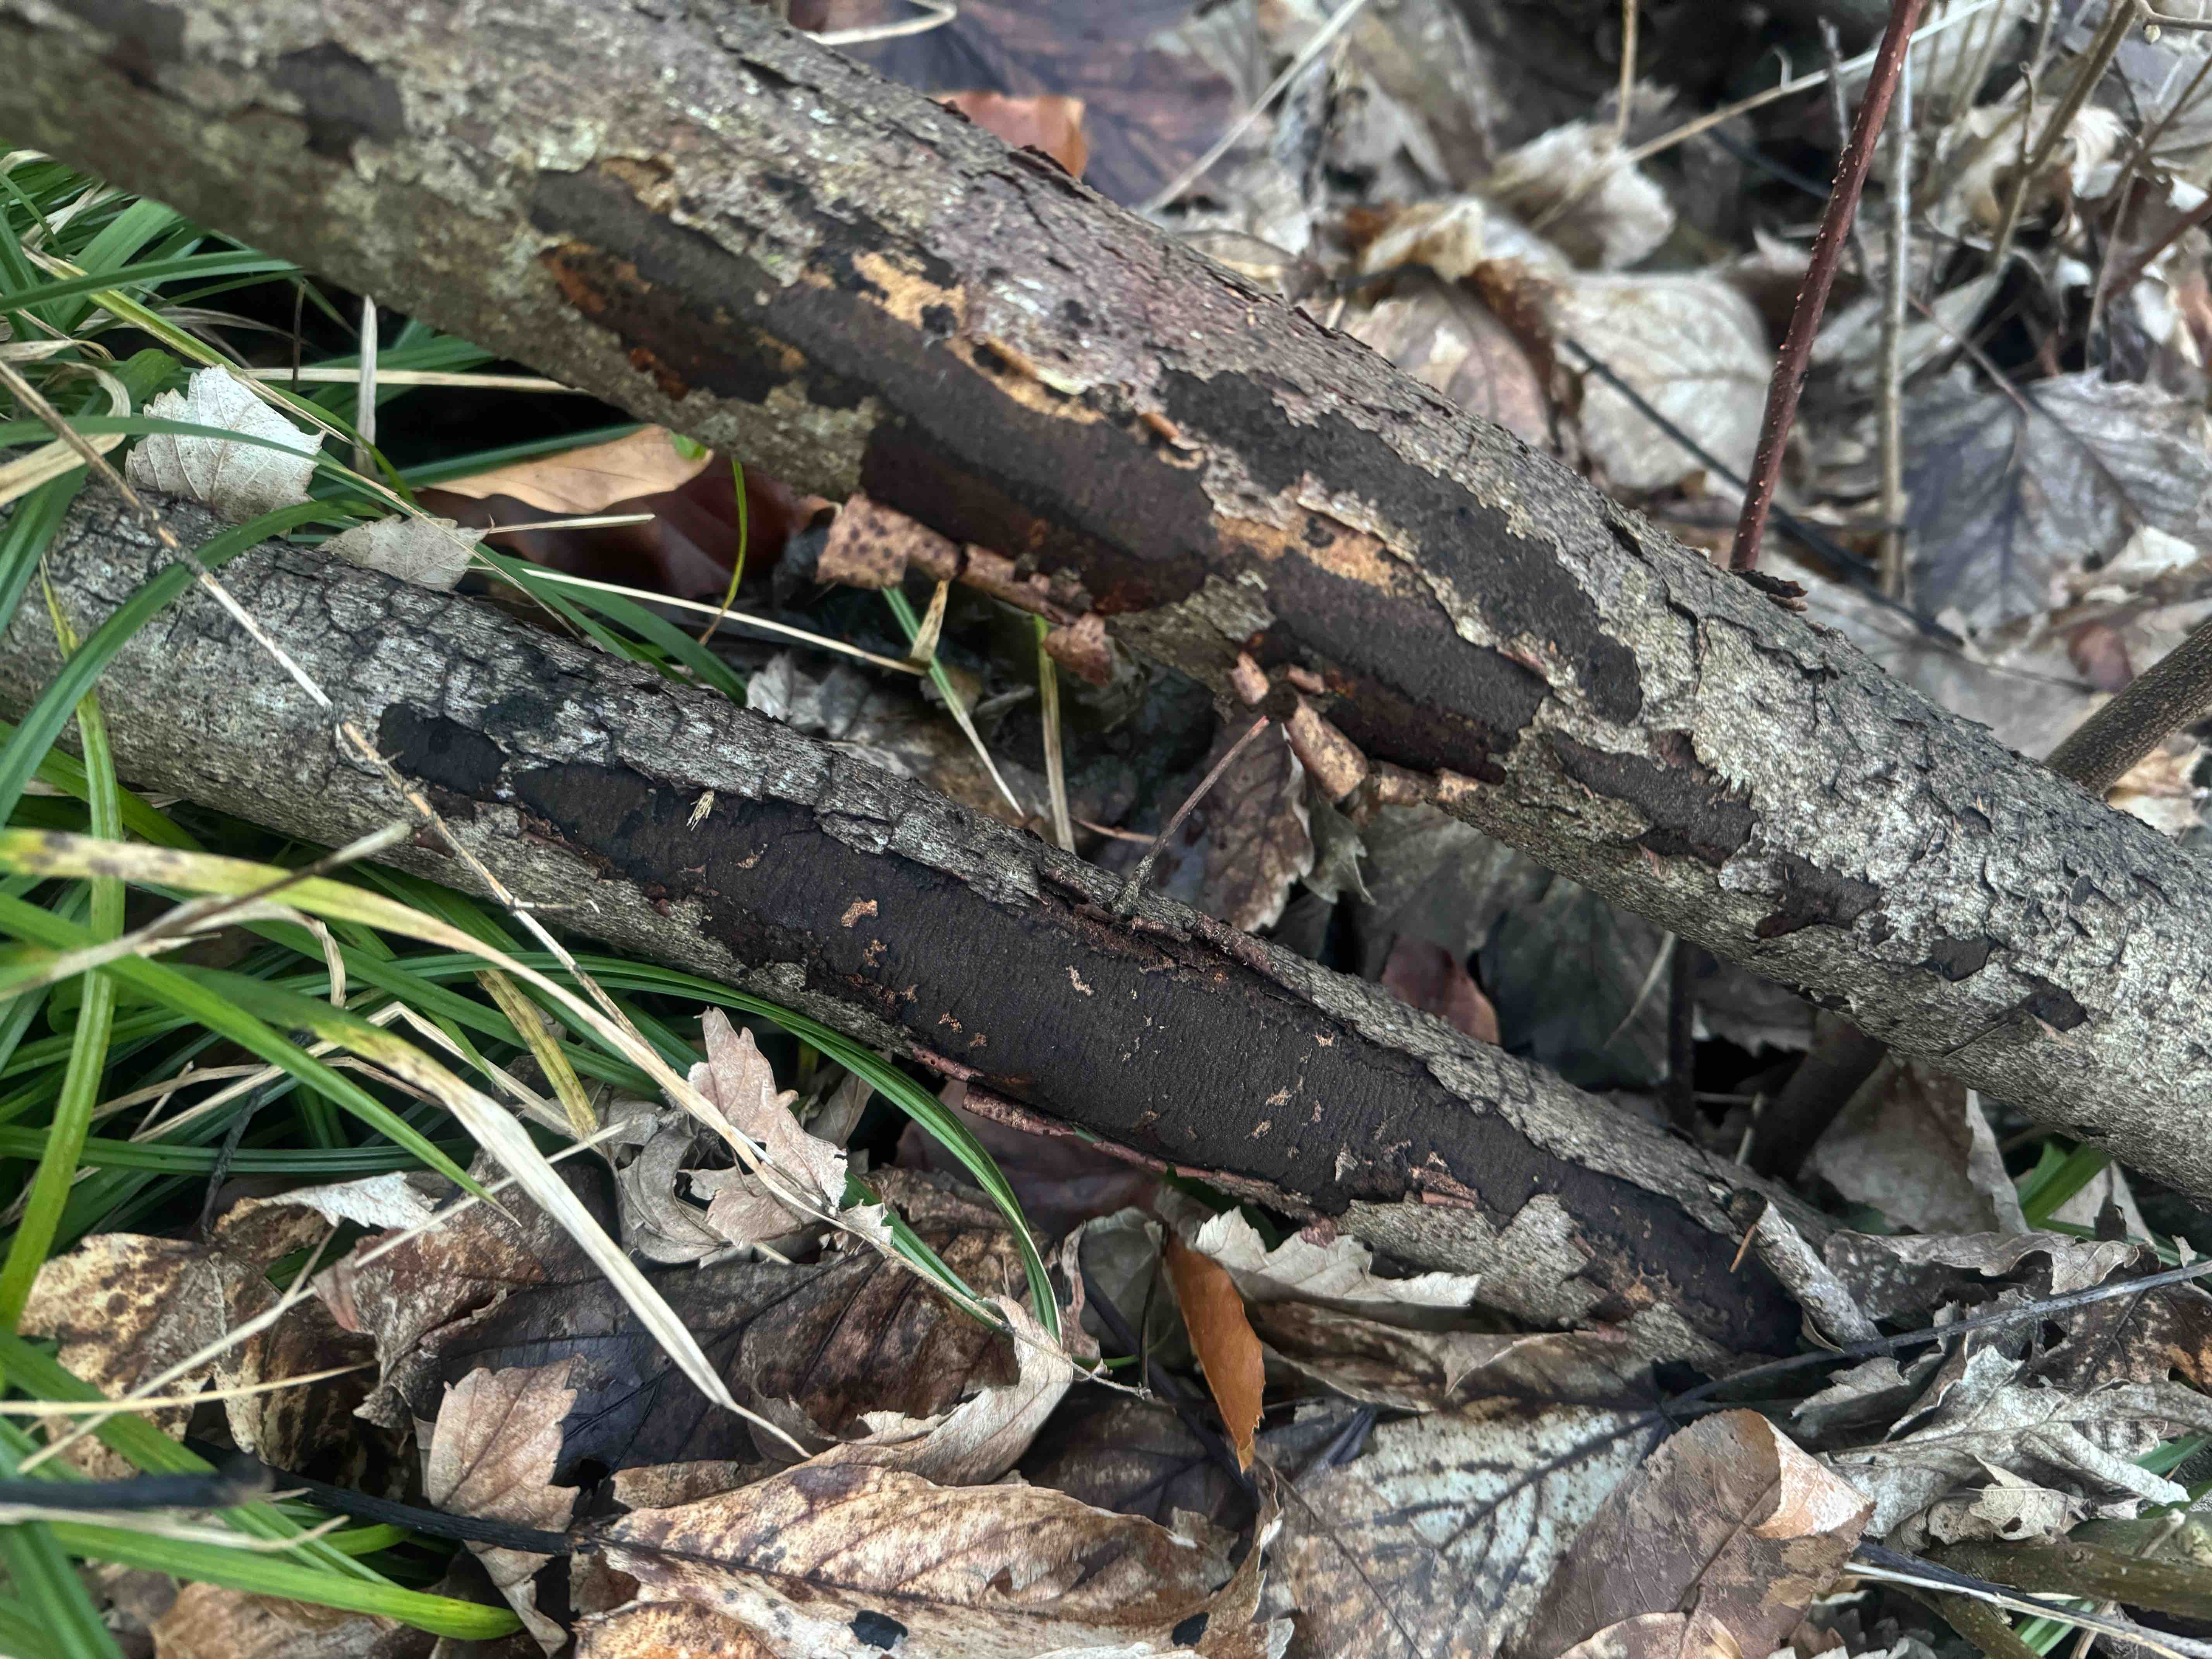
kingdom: Fungi
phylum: Ascomycota
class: Sordariomycetes
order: Xylariales
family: Diatrypaceae
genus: Diatrype
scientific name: Diatrype decorticata
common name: barksprænger-kulskorpe
